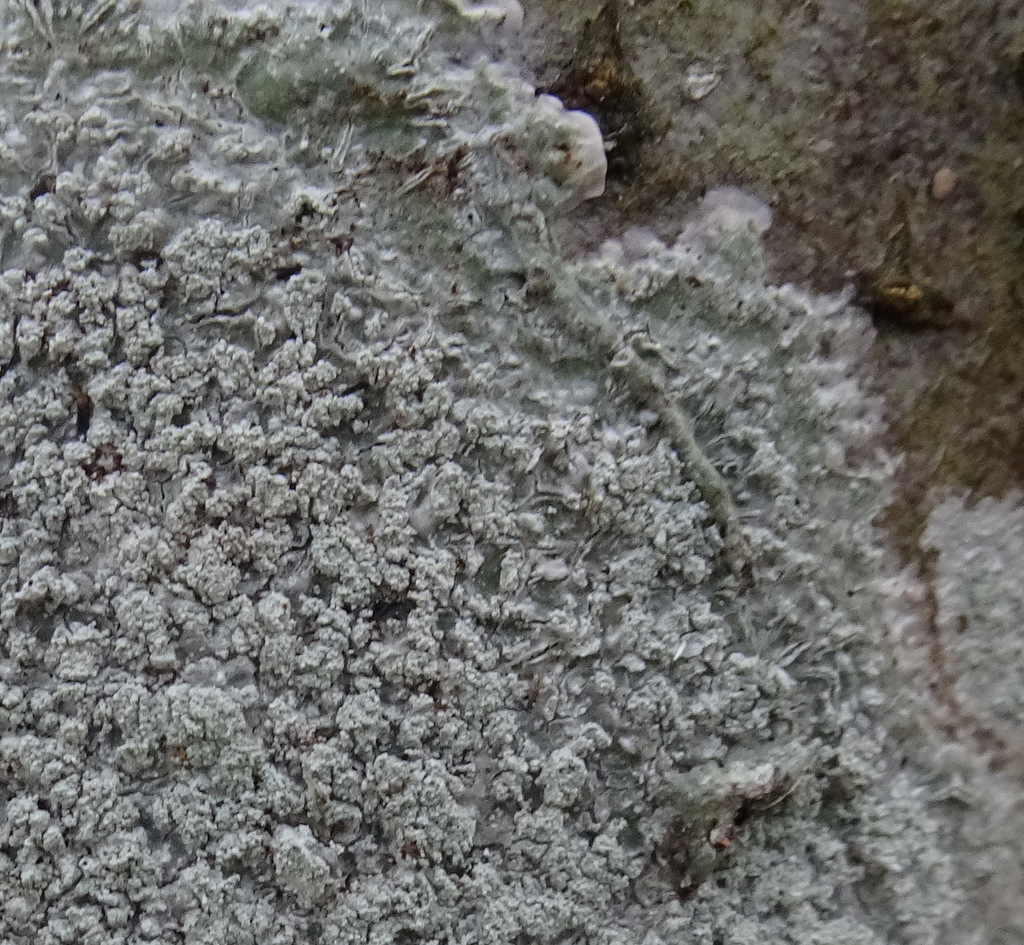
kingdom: Fungi
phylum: Ascomycota
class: Lecanoromycetes
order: Pertusariales
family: Pertusariaceae
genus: Lepra
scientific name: Lepra albescens
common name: hvidmelet prikvortelav
